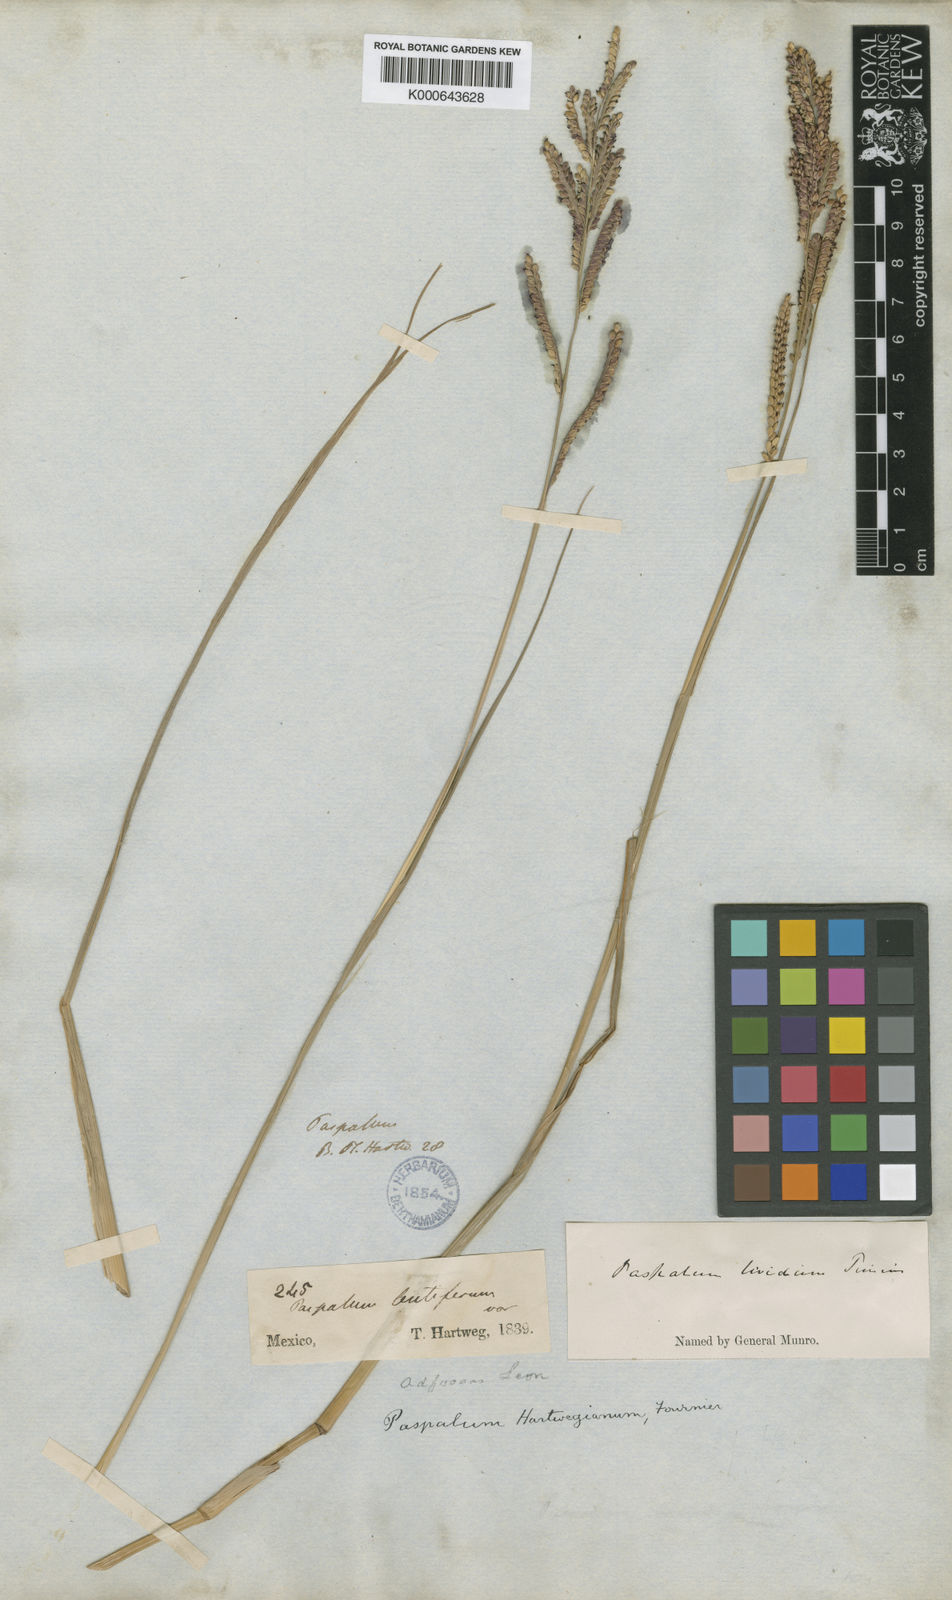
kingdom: Plantae
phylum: Tracheophyta
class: Liliopsida
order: Poales
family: Poaceae
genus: Paspalum
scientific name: Paspalum hartwegianum
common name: Hartweg's paspalum
